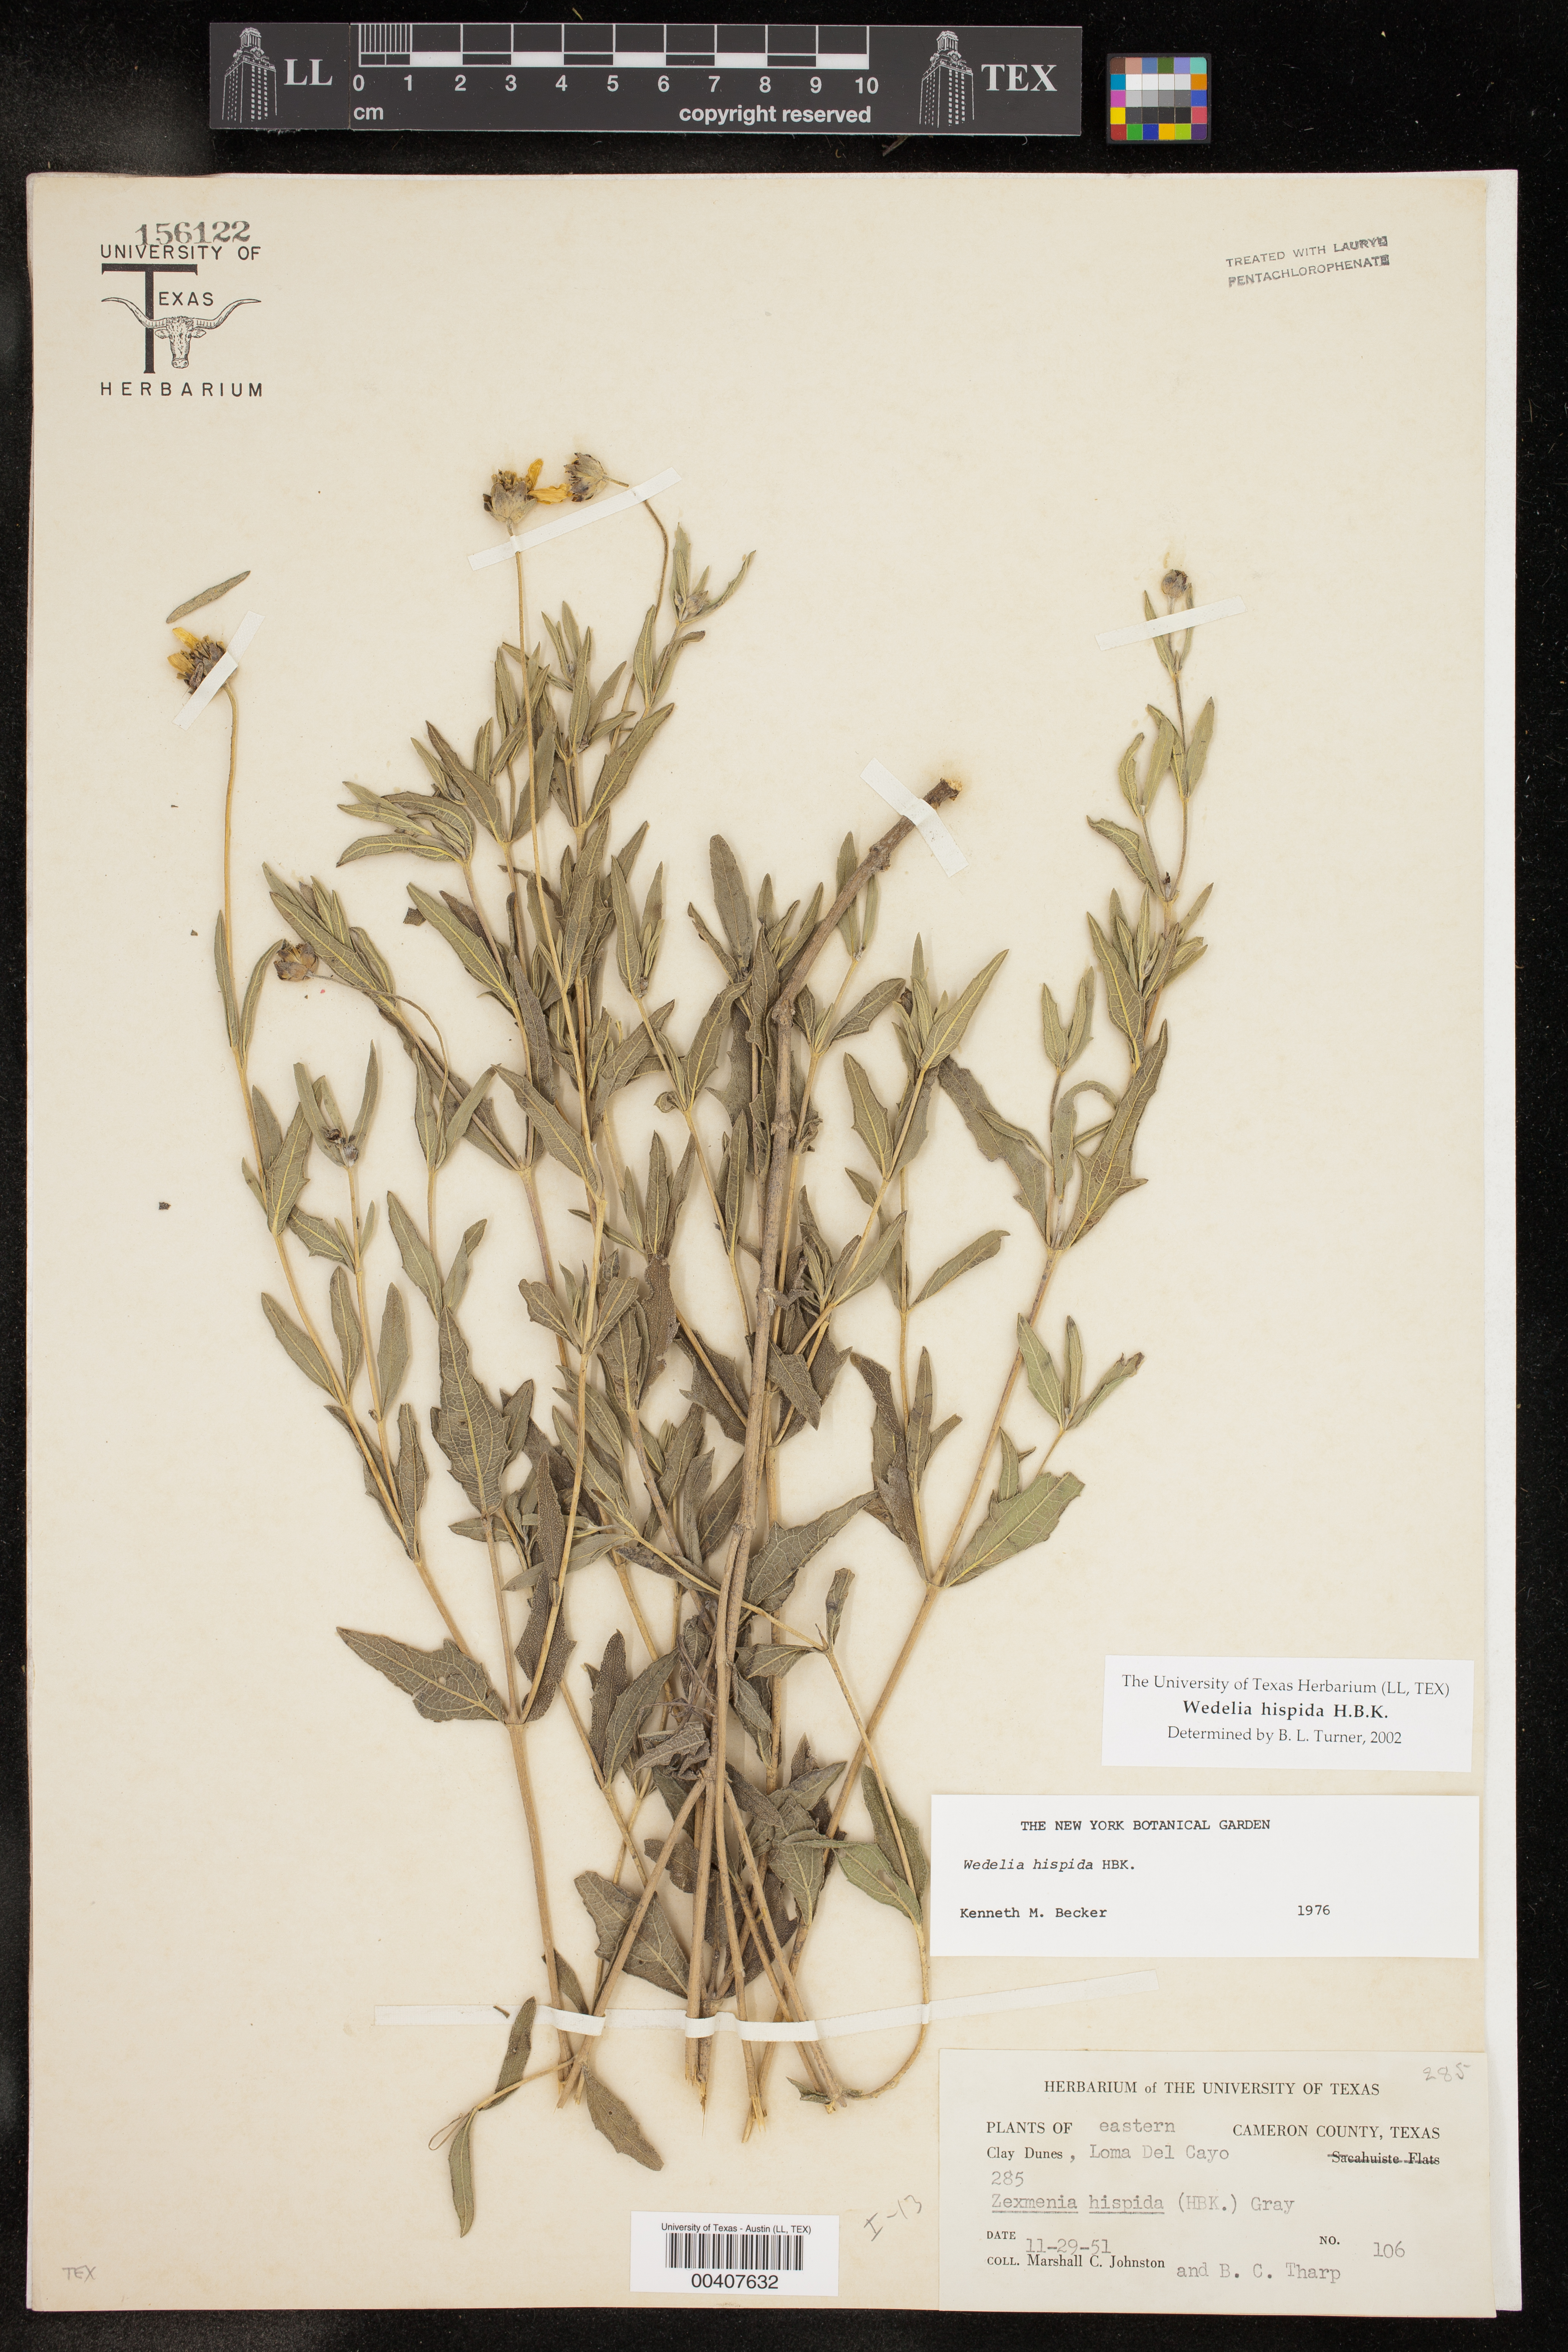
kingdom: Plantae
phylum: Tracheophyta
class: Magnoliopsida
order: Asterales
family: Asteraceae
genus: Wedelia
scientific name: Wedelia acapulcensis
